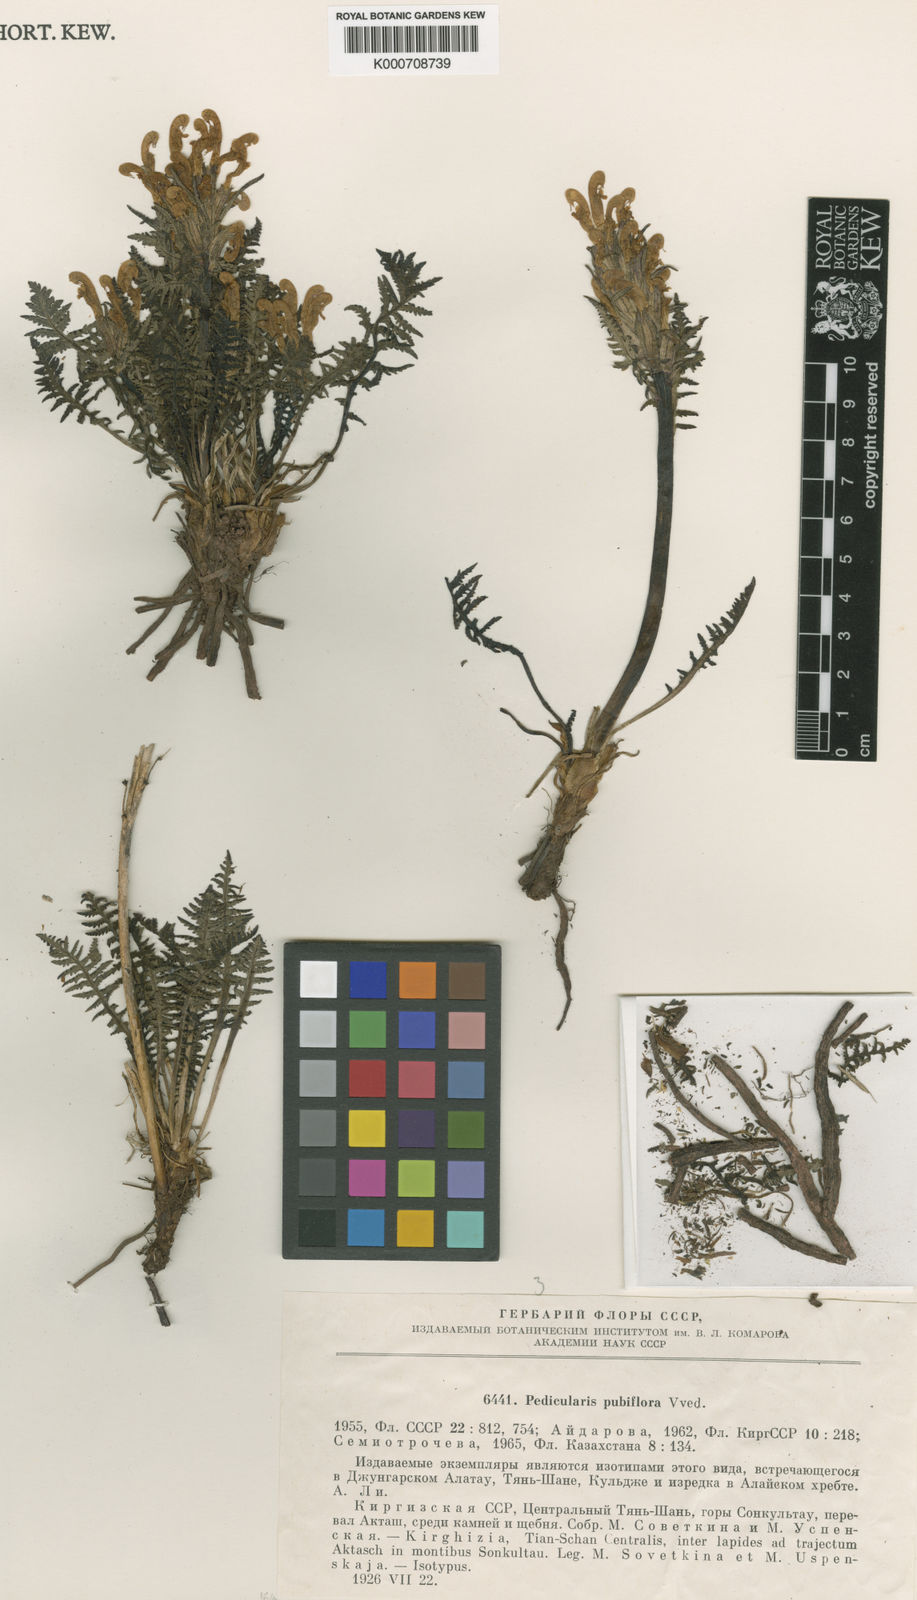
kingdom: Plantae
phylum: Tracheophyta
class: Magnoliopsida
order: Lamiales
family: Orobanchaceae
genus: Pedicularis
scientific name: Pedicularis pubiflora
